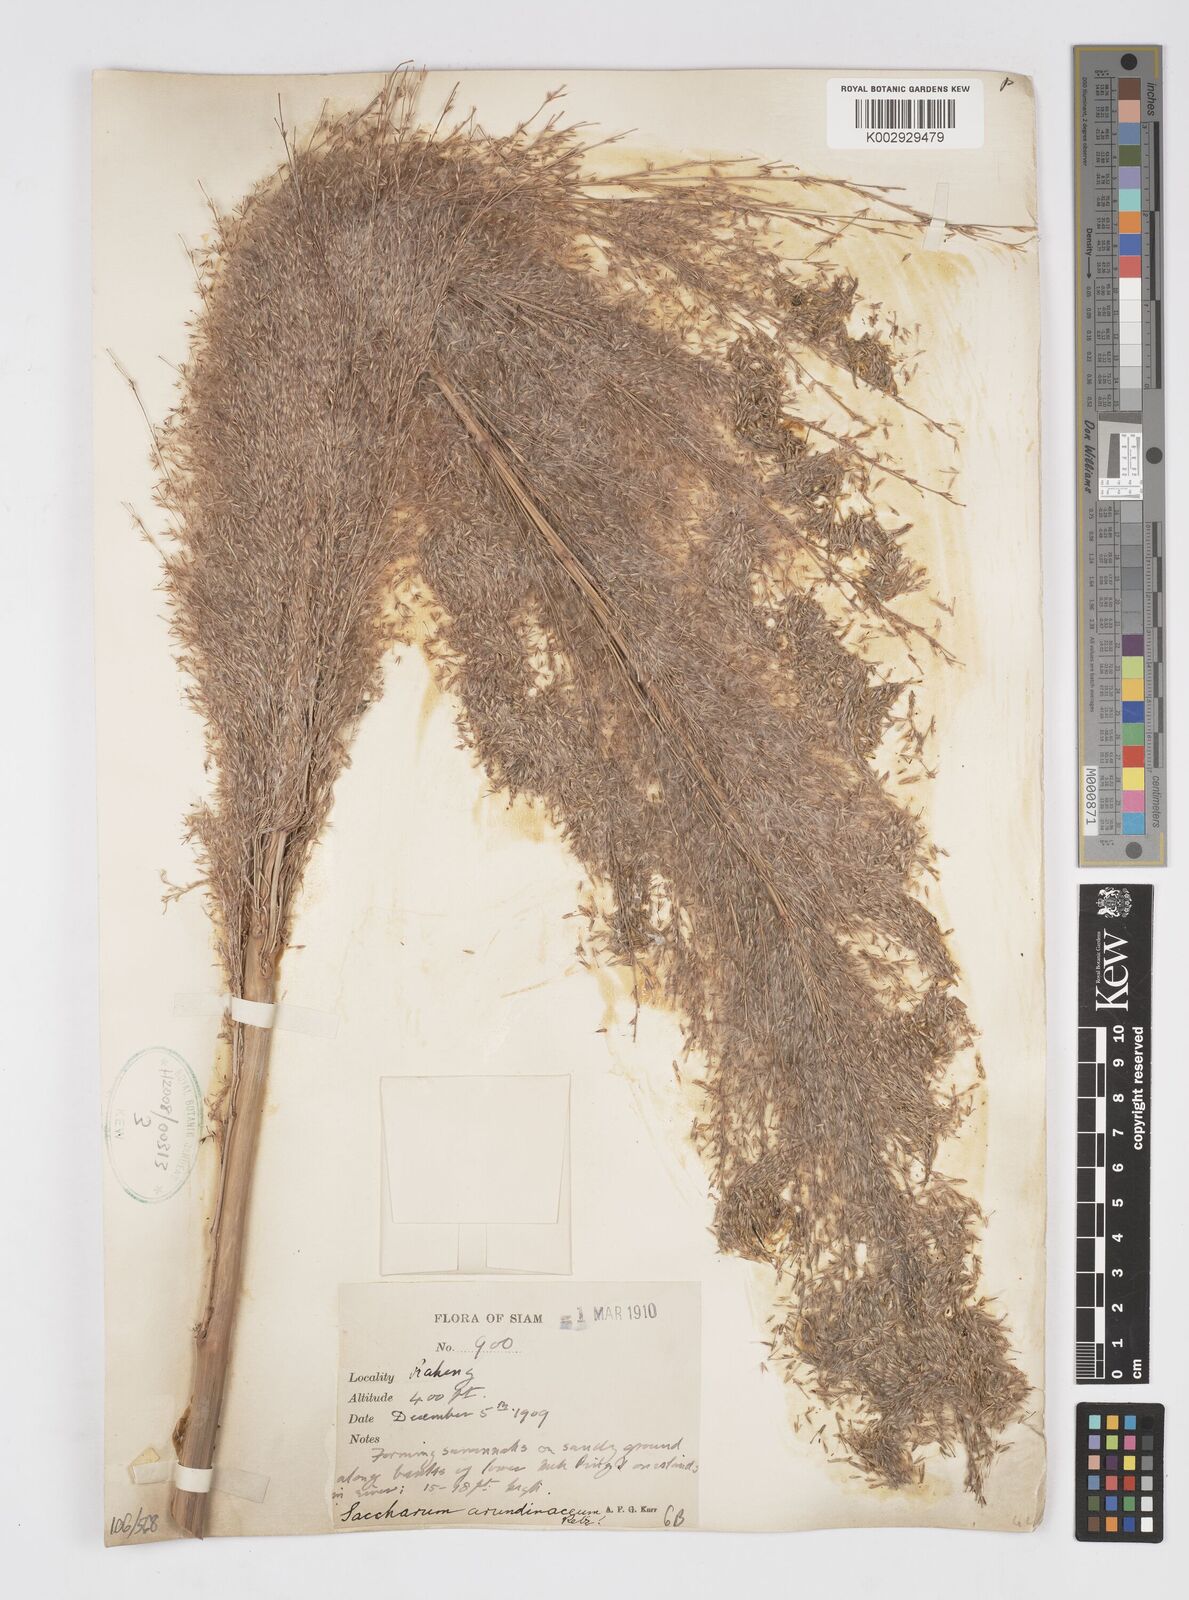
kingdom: Plantae
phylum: Tracheophyta
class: Liliopsida
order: Poales
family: Poaceae
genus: Tripidium
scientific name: Tripidium arundinaceum
